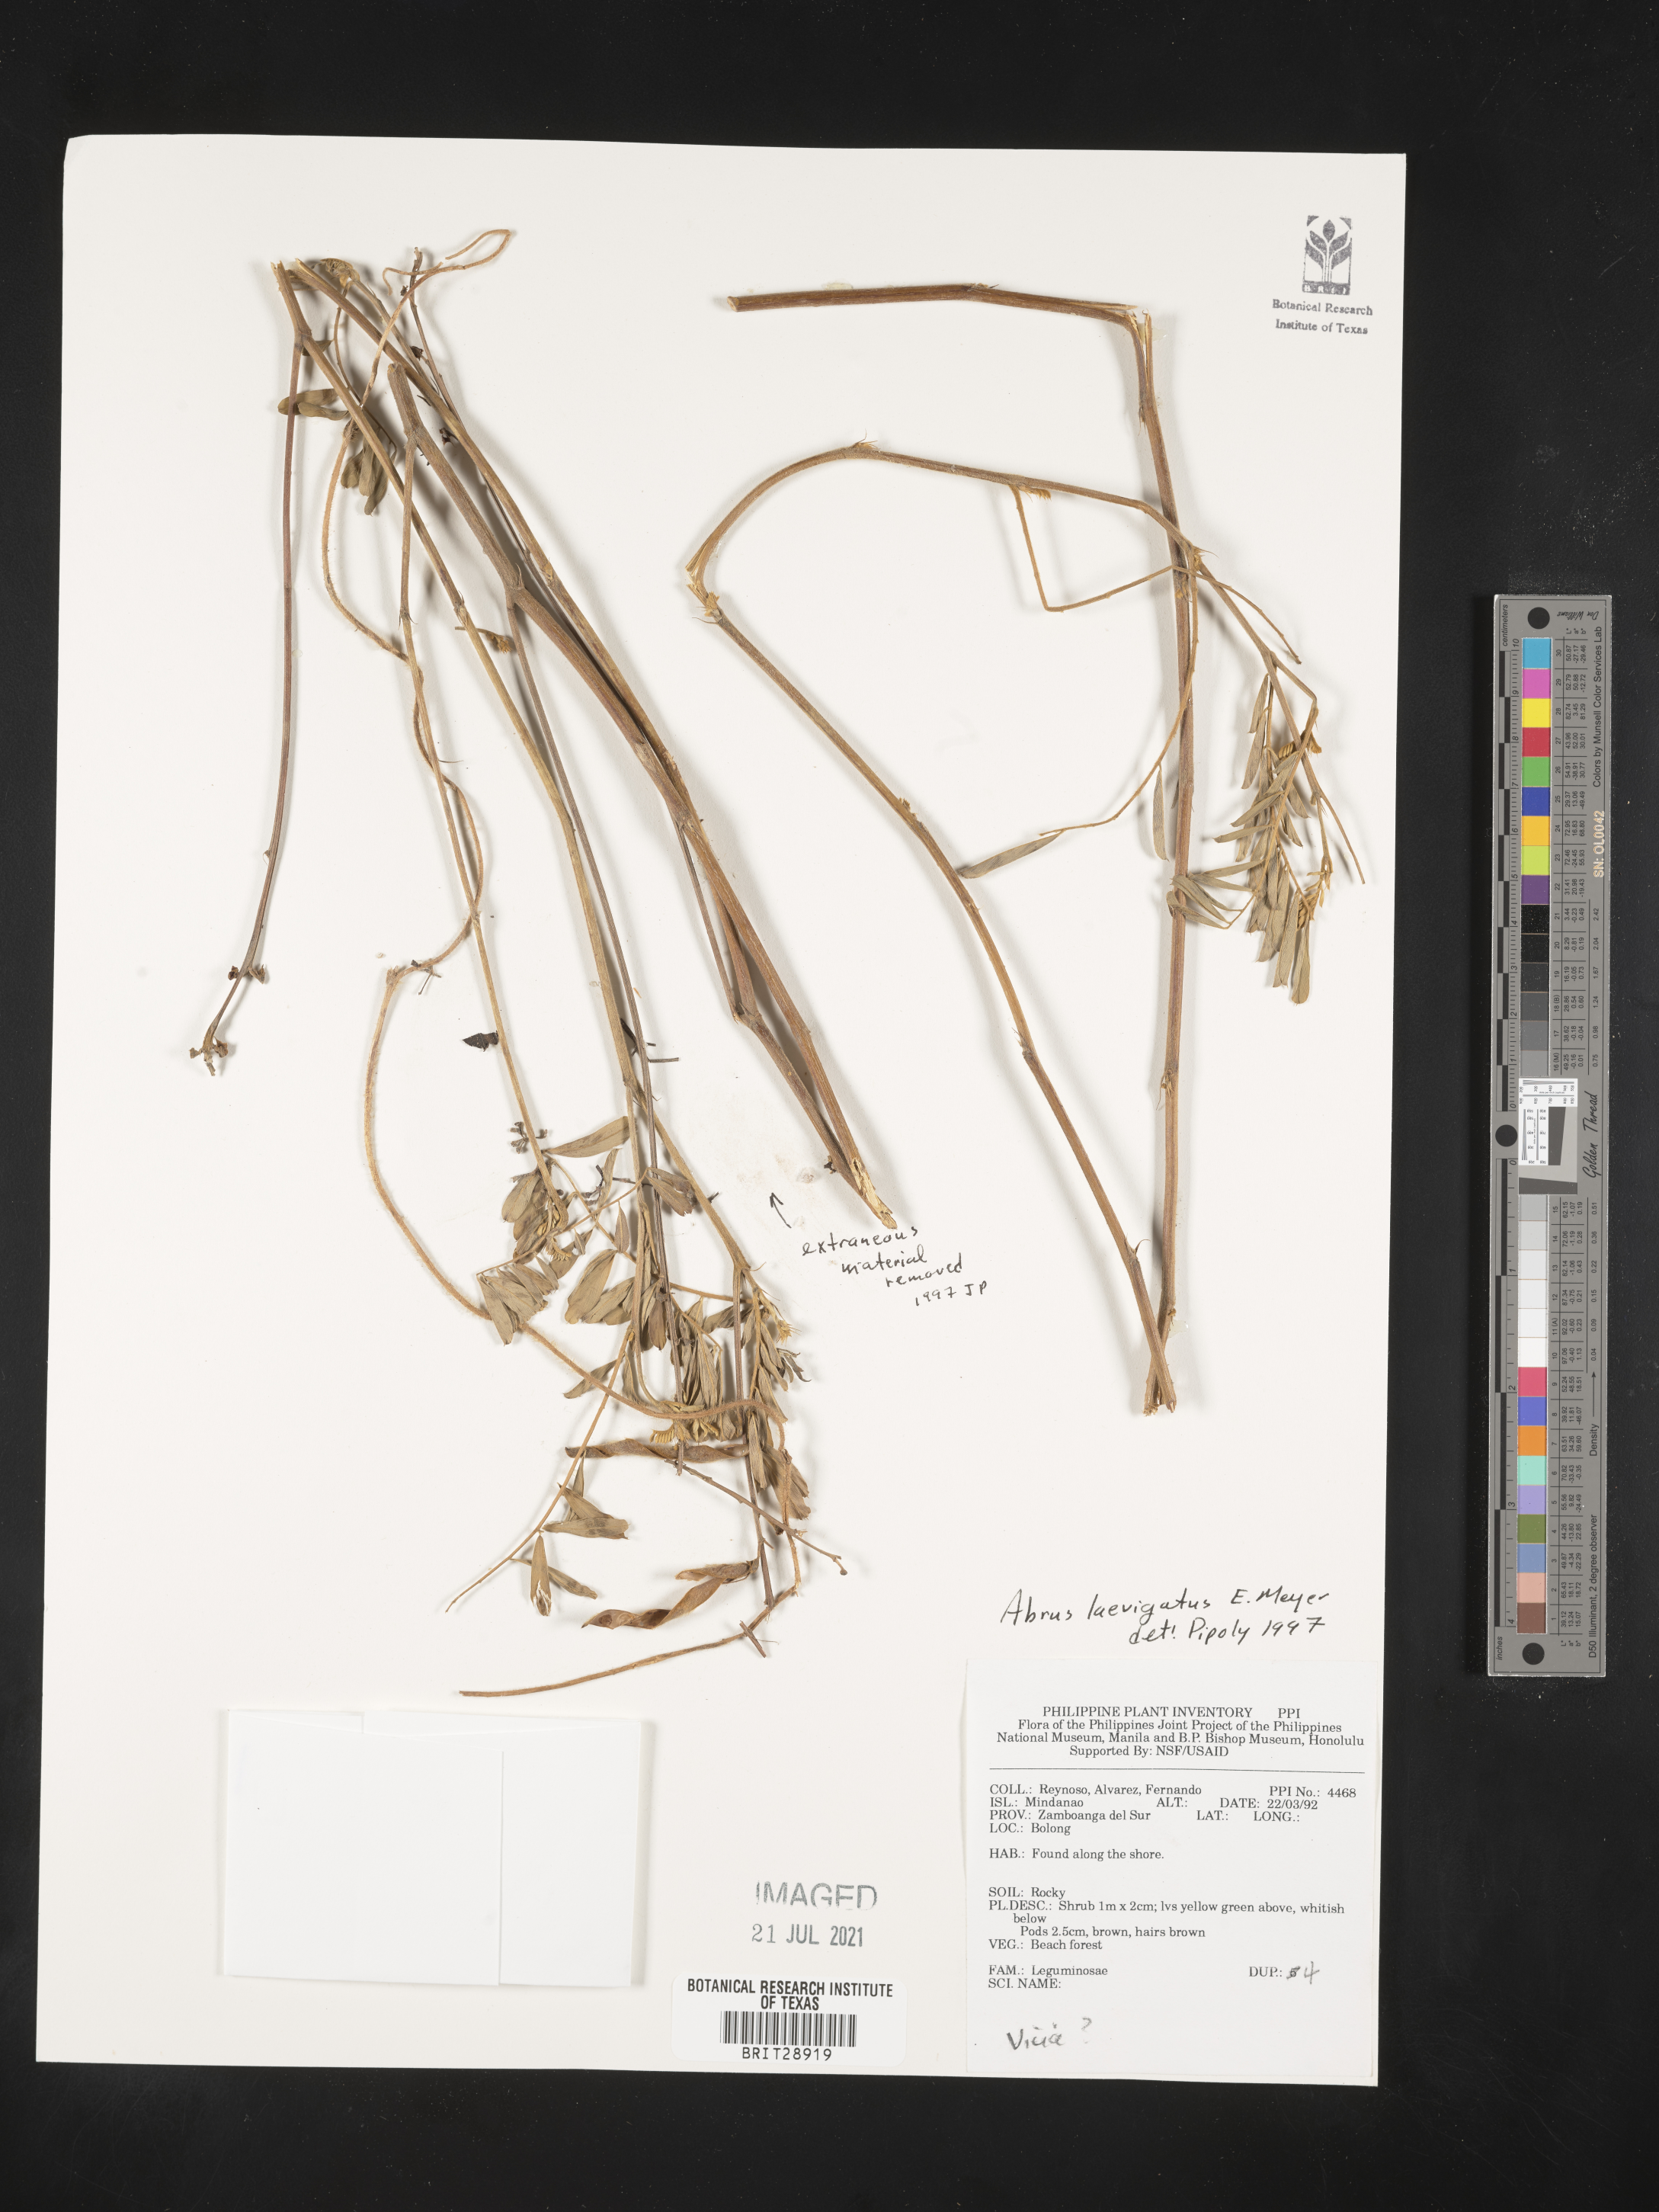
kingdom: Plantae
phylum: Tracheophyta
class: Magnoliopsida
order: Fabales
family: Fabaceae
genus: Abrus
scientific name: Abrus laevigatus
